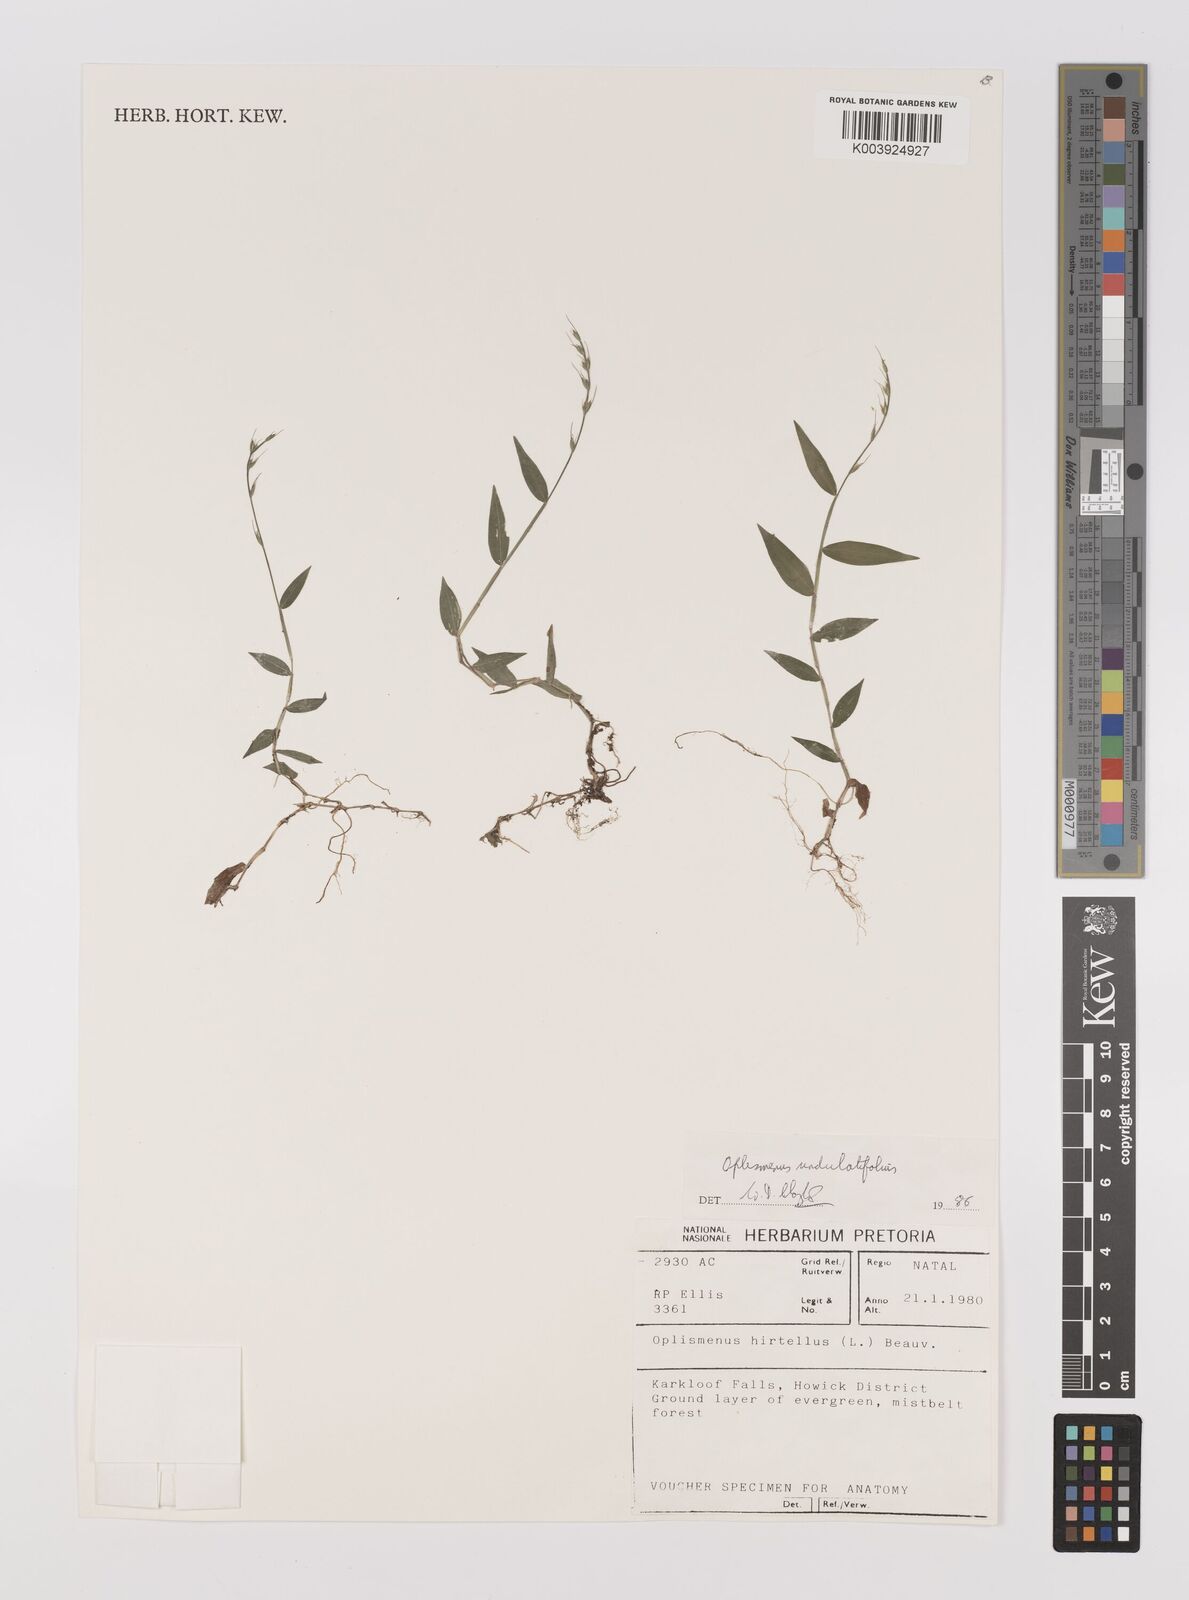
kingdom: Plantae
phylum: Tracheophyta
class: Liliopsida
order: Poales
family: Poaceae
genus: Oplismenus
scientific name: Oplismenus undulatifolius
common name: Wavyleaf basketgrass
